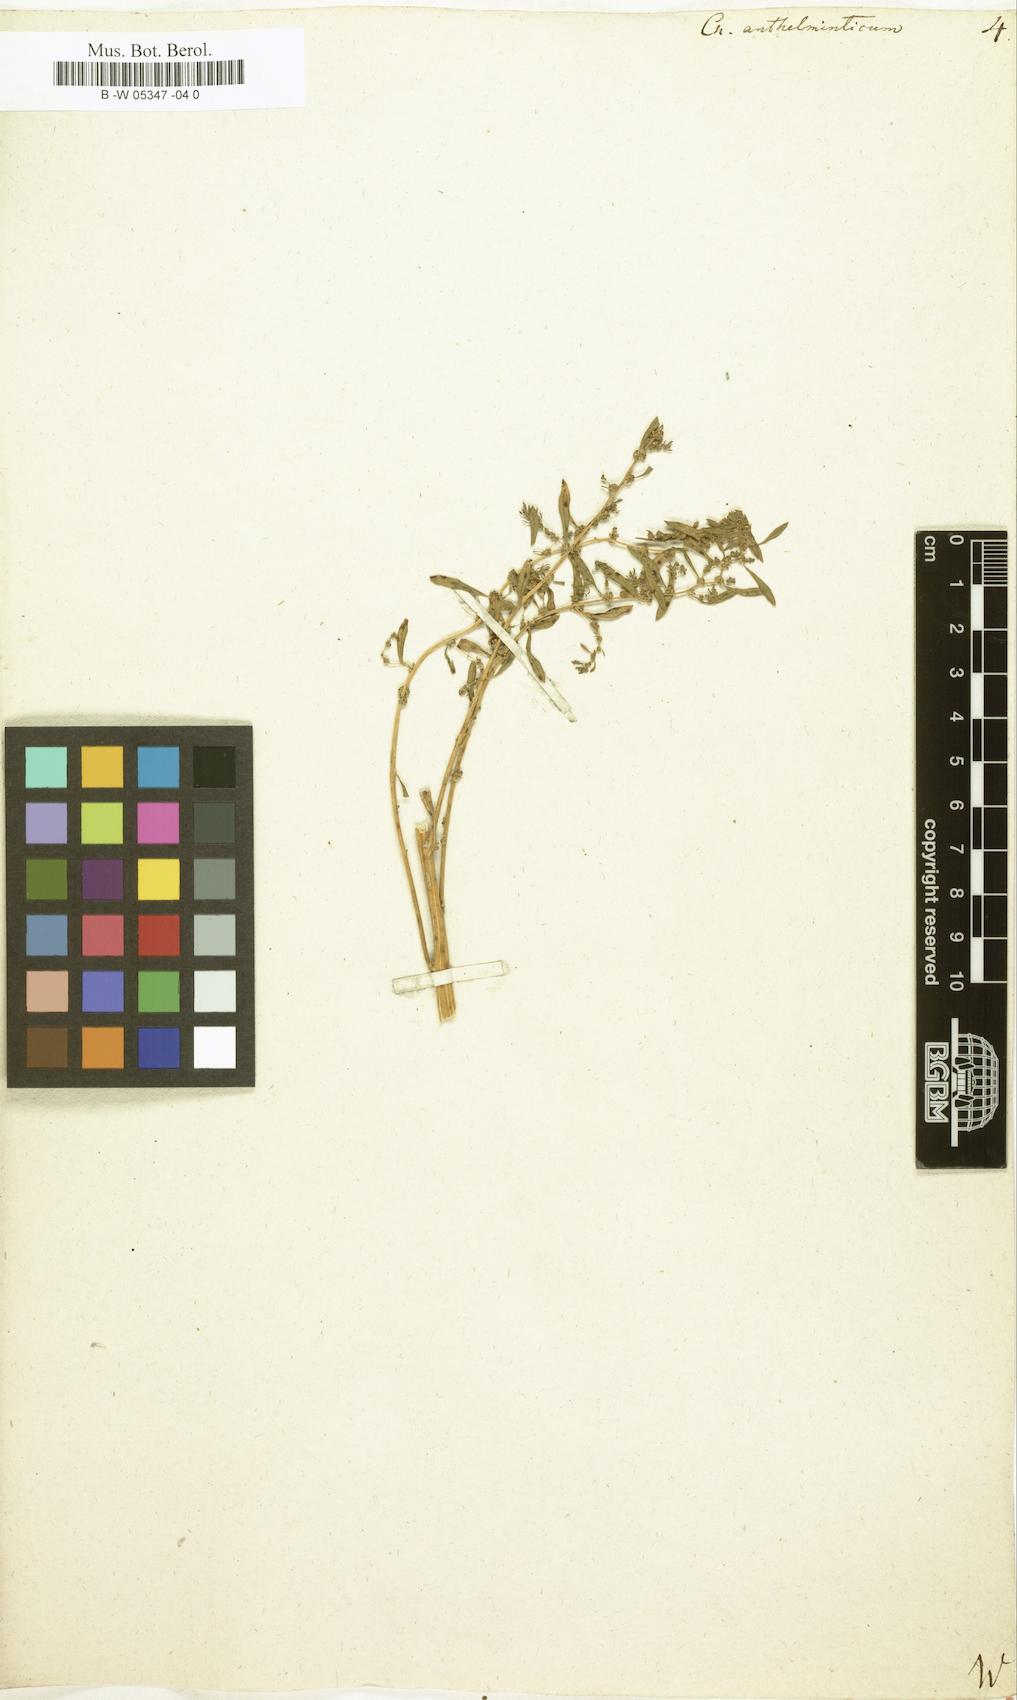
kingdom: Plantae
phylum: Tracheophyta
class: Magnoliopsida
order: Caryophyllales
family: Amaranthaceae
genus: Dysphania
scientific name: Dysphania anthelmintica
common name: Wormseed
